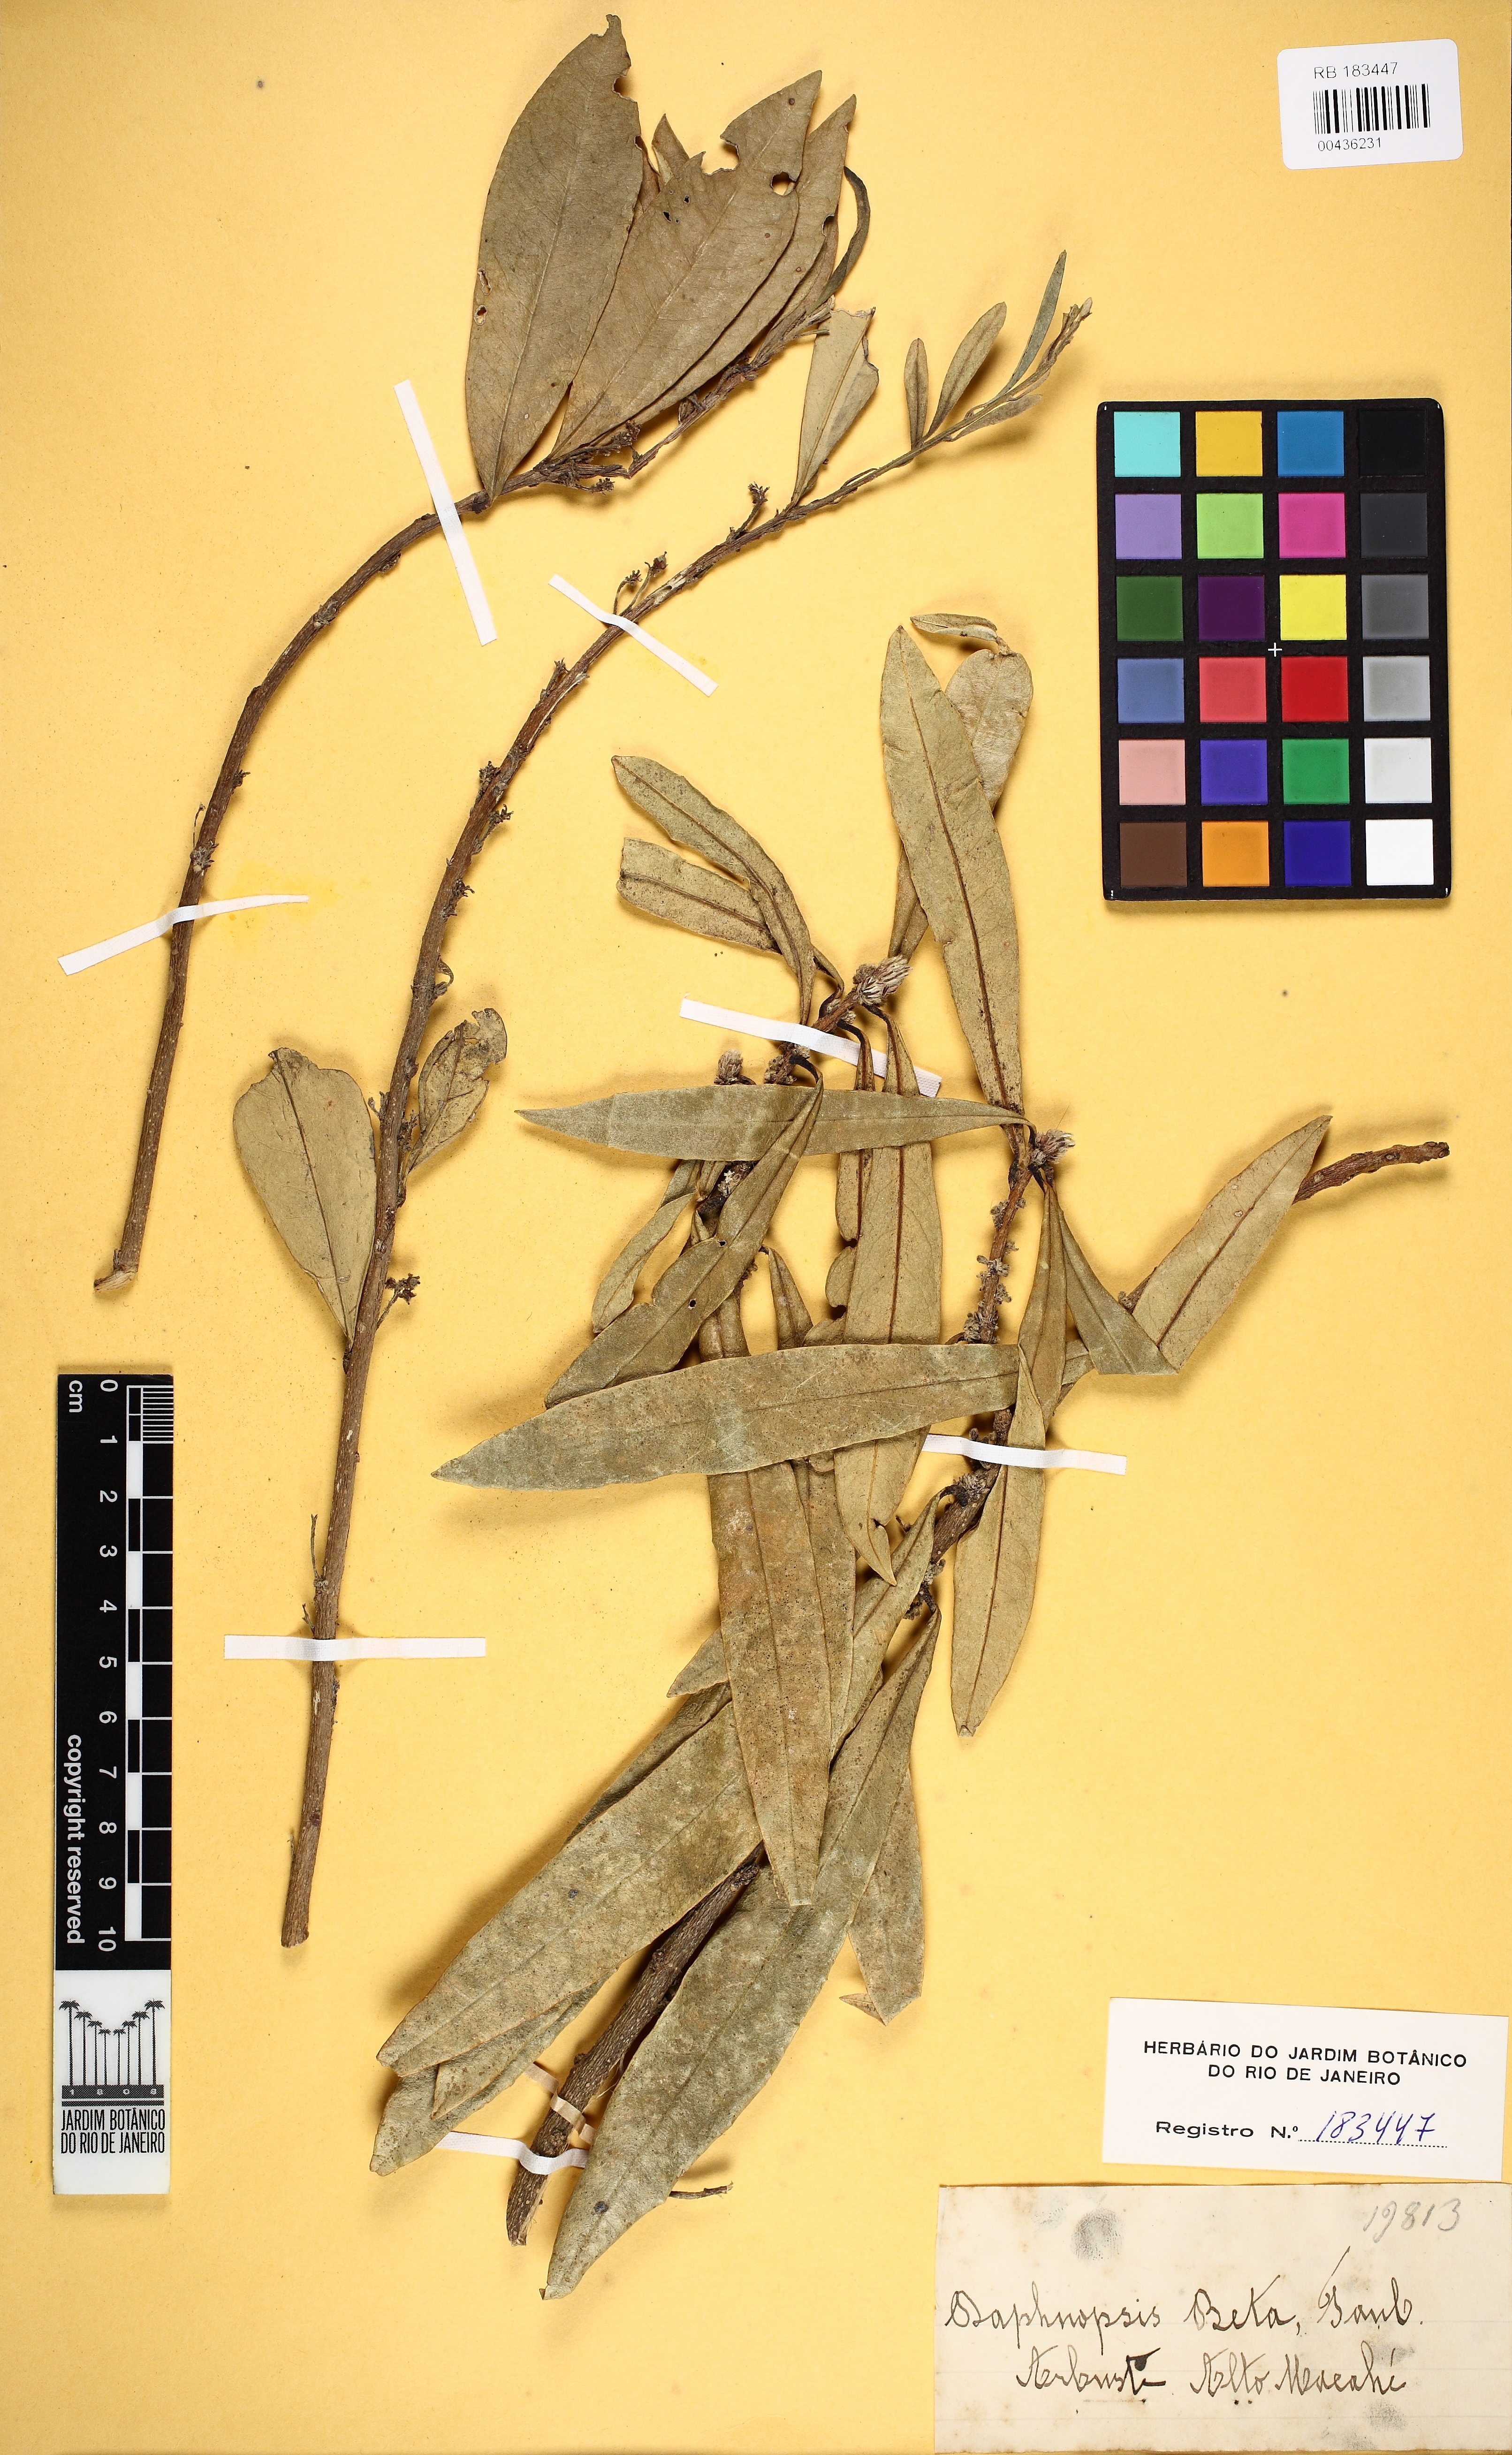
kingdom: Plantae
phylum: Tracheophyta
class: Magnoliopsida
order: Malvales
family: Thymelaeaceae
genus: Daphnopsis
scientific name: Daphnopsis fasciculata
